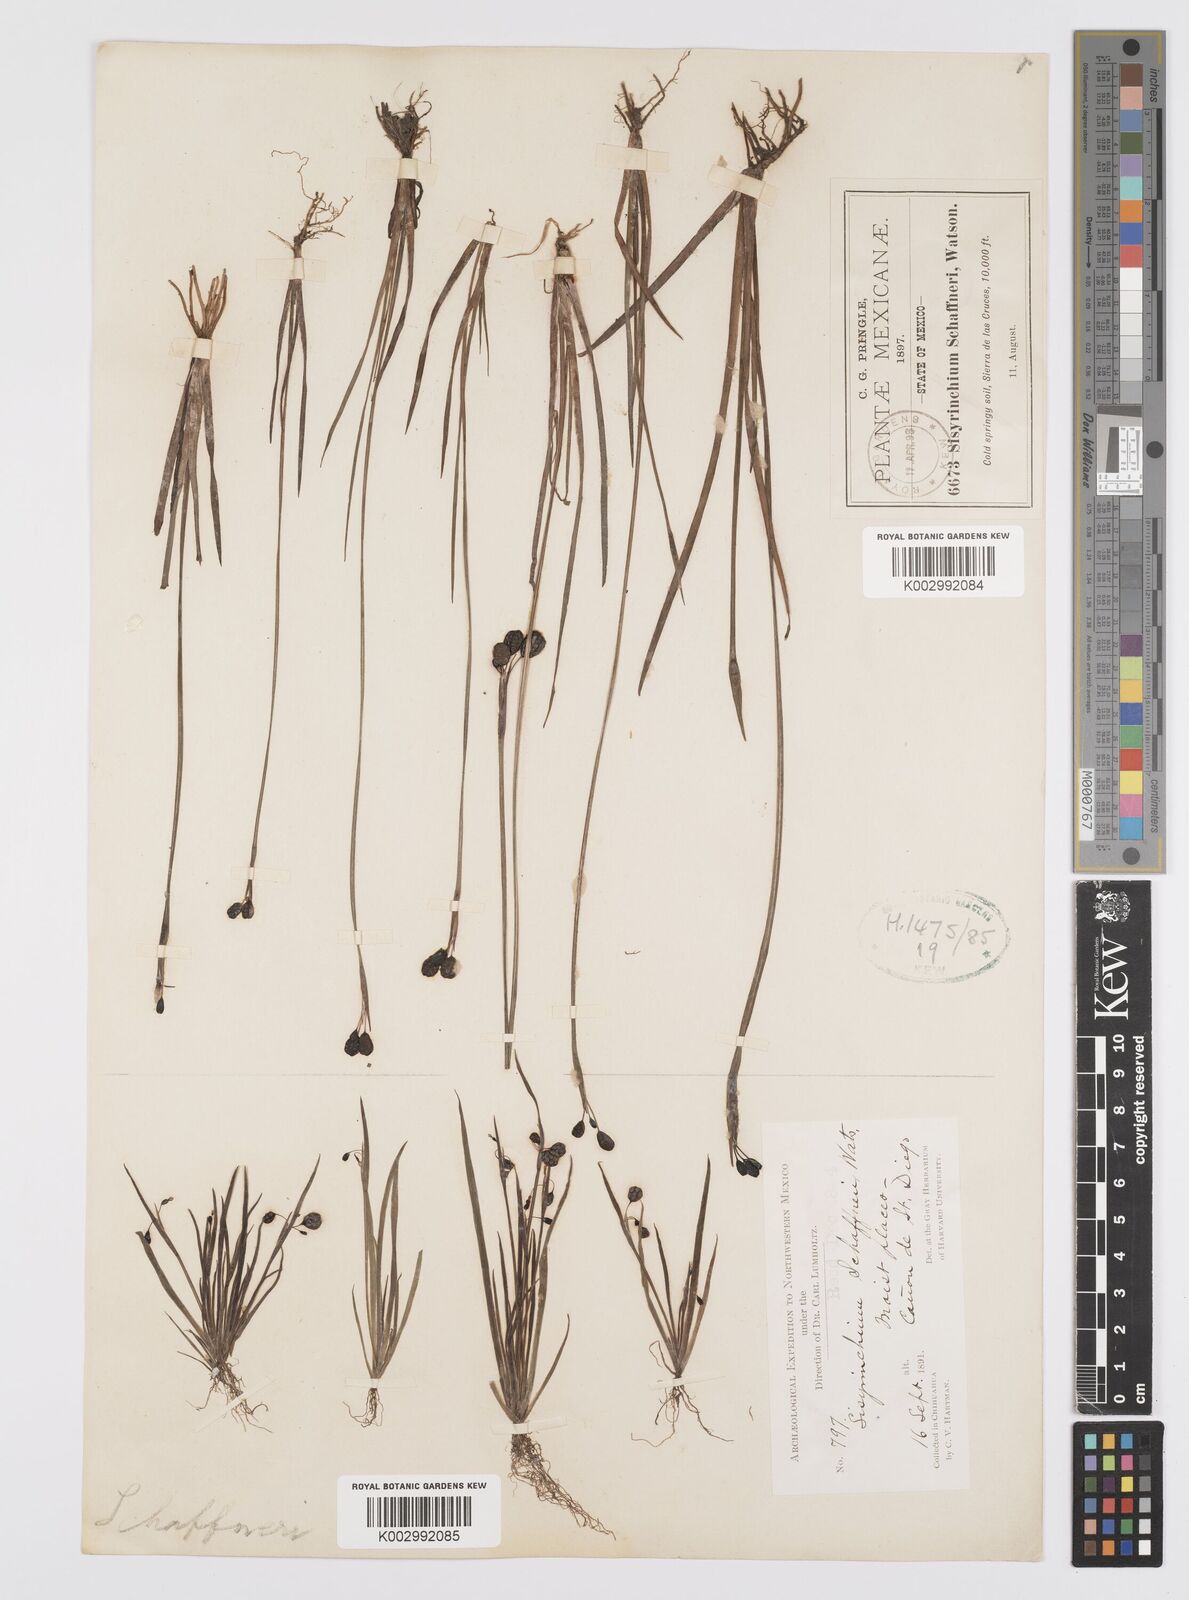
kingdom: Plantae
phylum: Tracheophyta
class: Liliopsida
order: Asparagales
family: Iridaceae
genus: Sisyrinchium
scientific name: Sisyrinchium schaffneri
